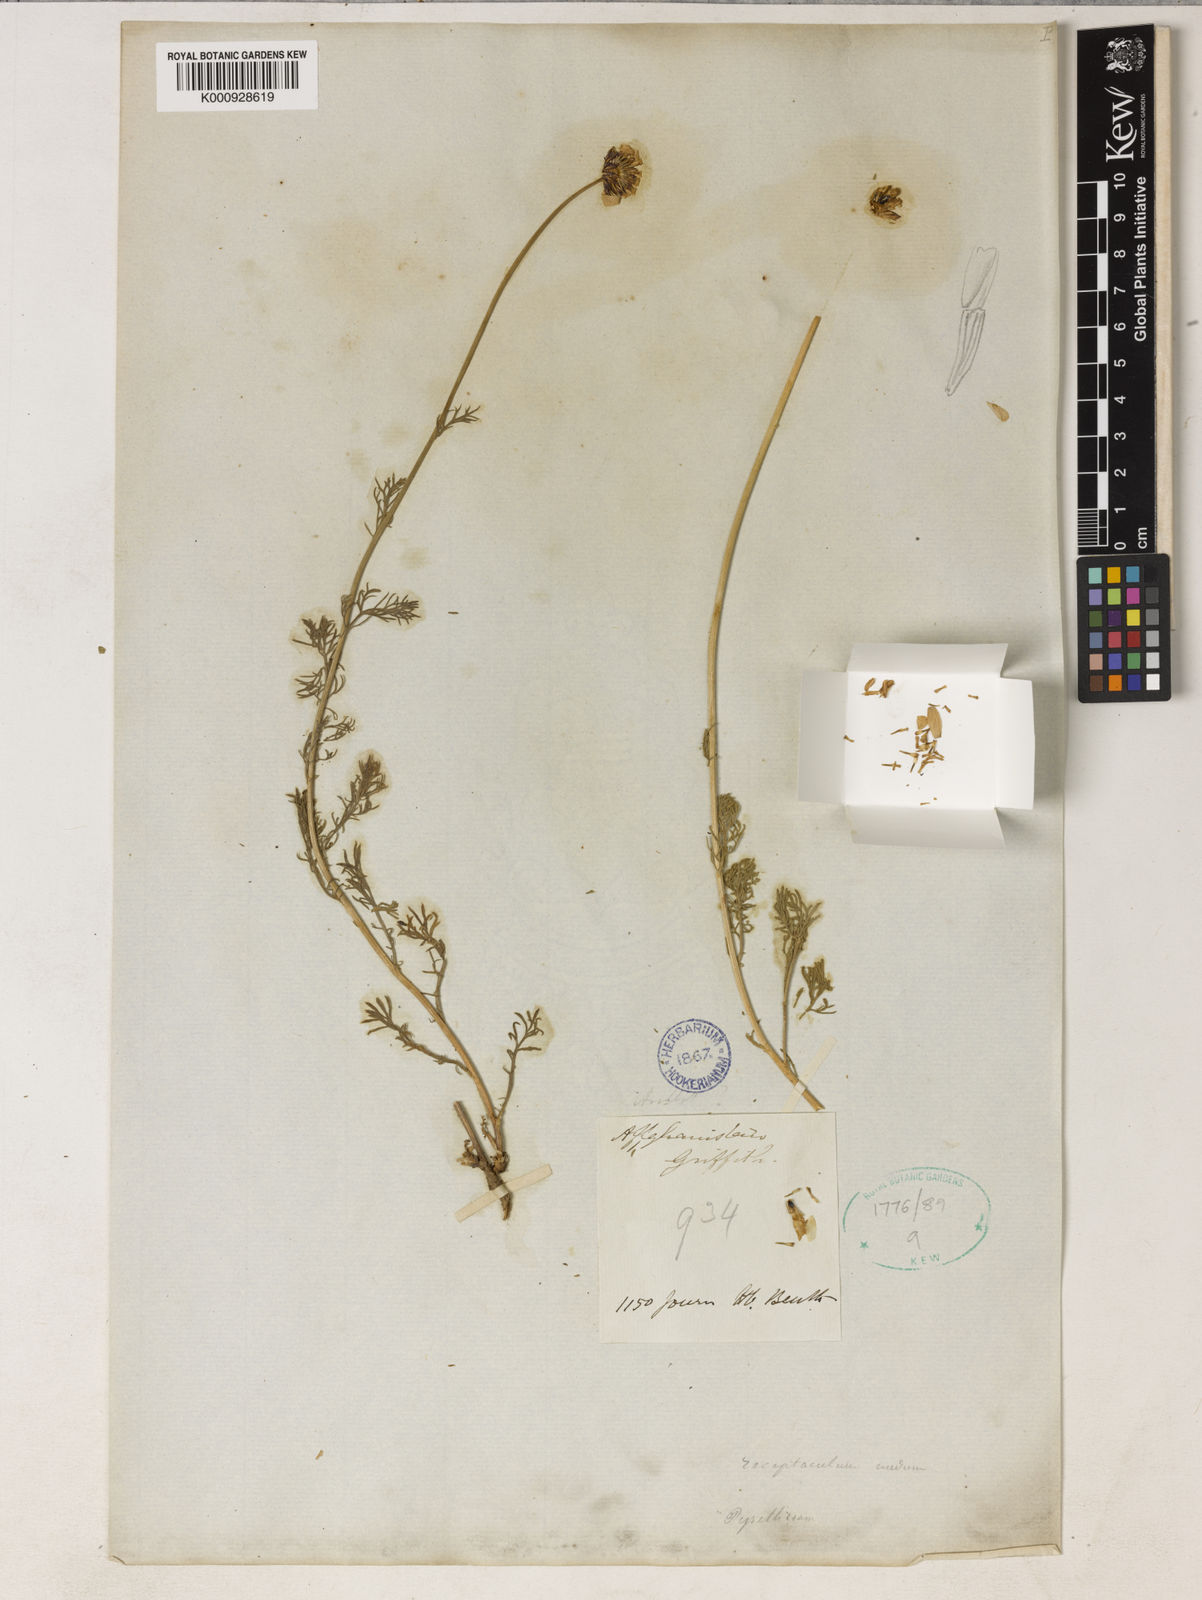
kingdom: Plantae
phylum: Tracheophyta
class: Magnoliopsida
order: Asterales
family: Asteraceae
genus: Tanacetum
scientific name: Tanacetum griffithii
